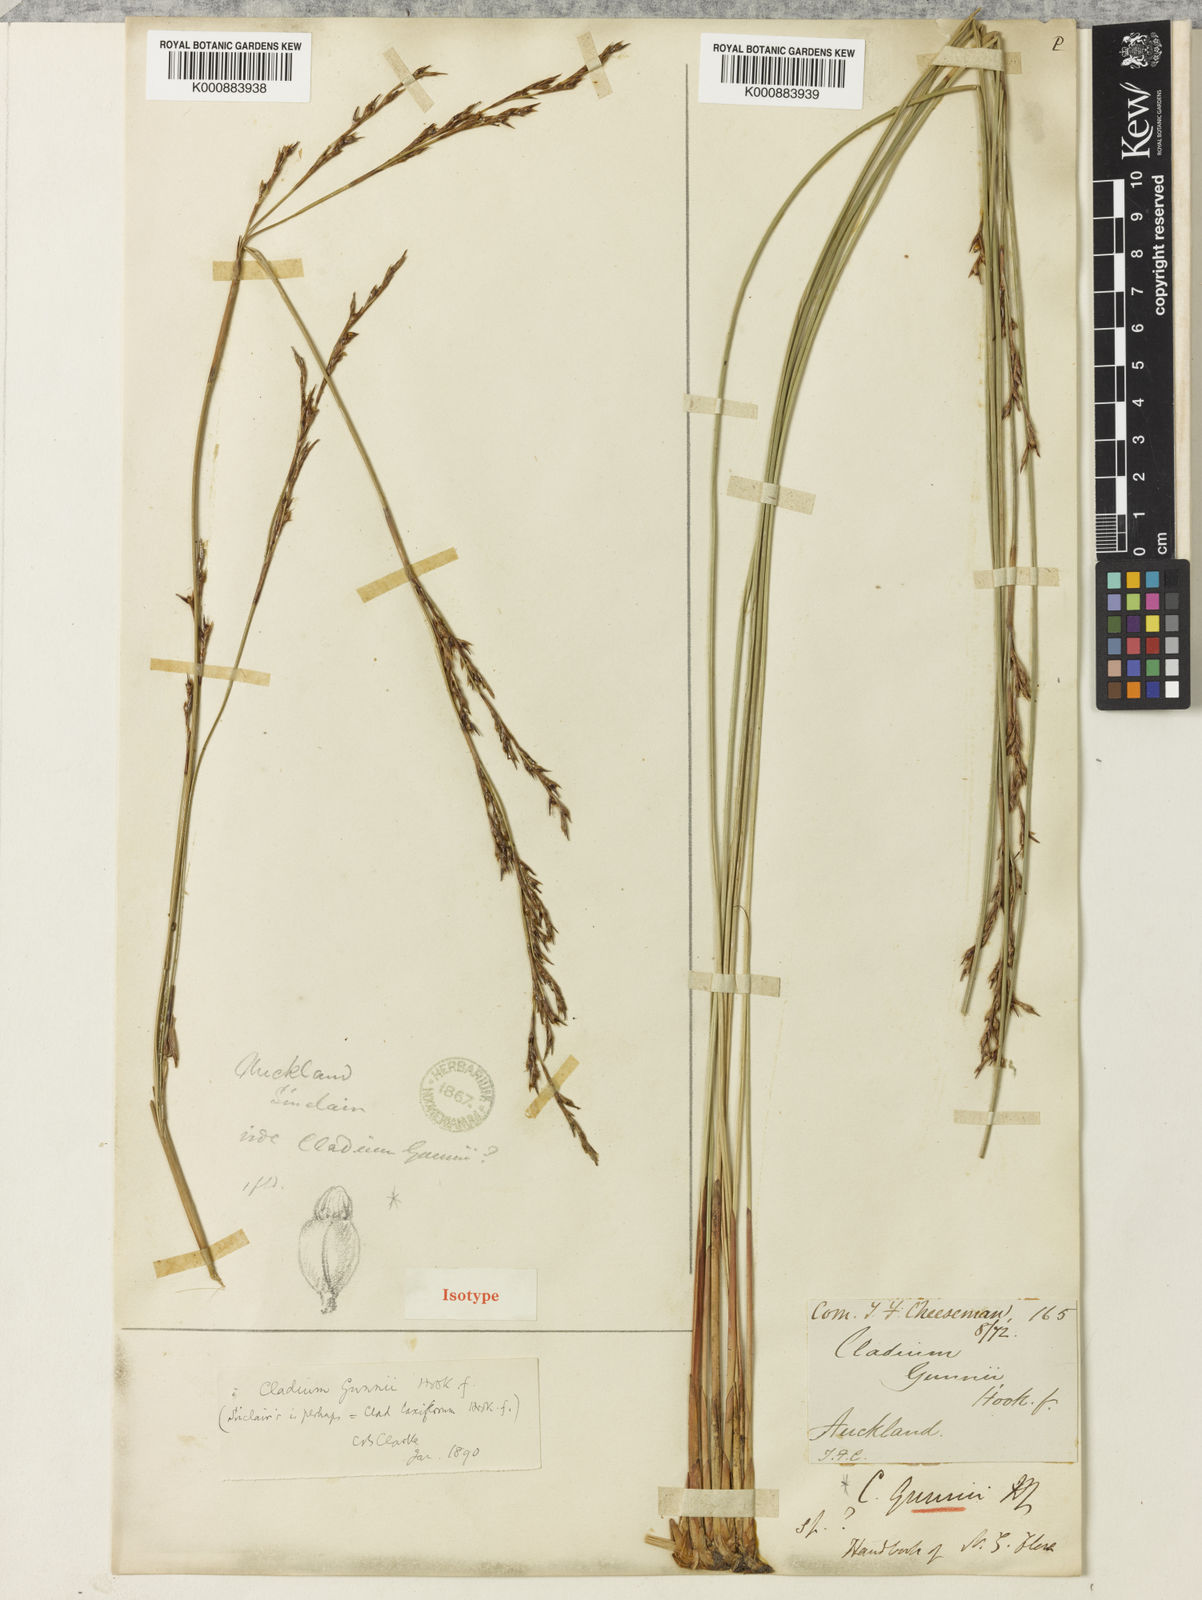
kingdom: Plantae
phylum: Tracheophyta
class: Liliopsida
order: Poales
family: Cyperaceae
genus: Machaerina
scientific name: Machaerina gunnii
